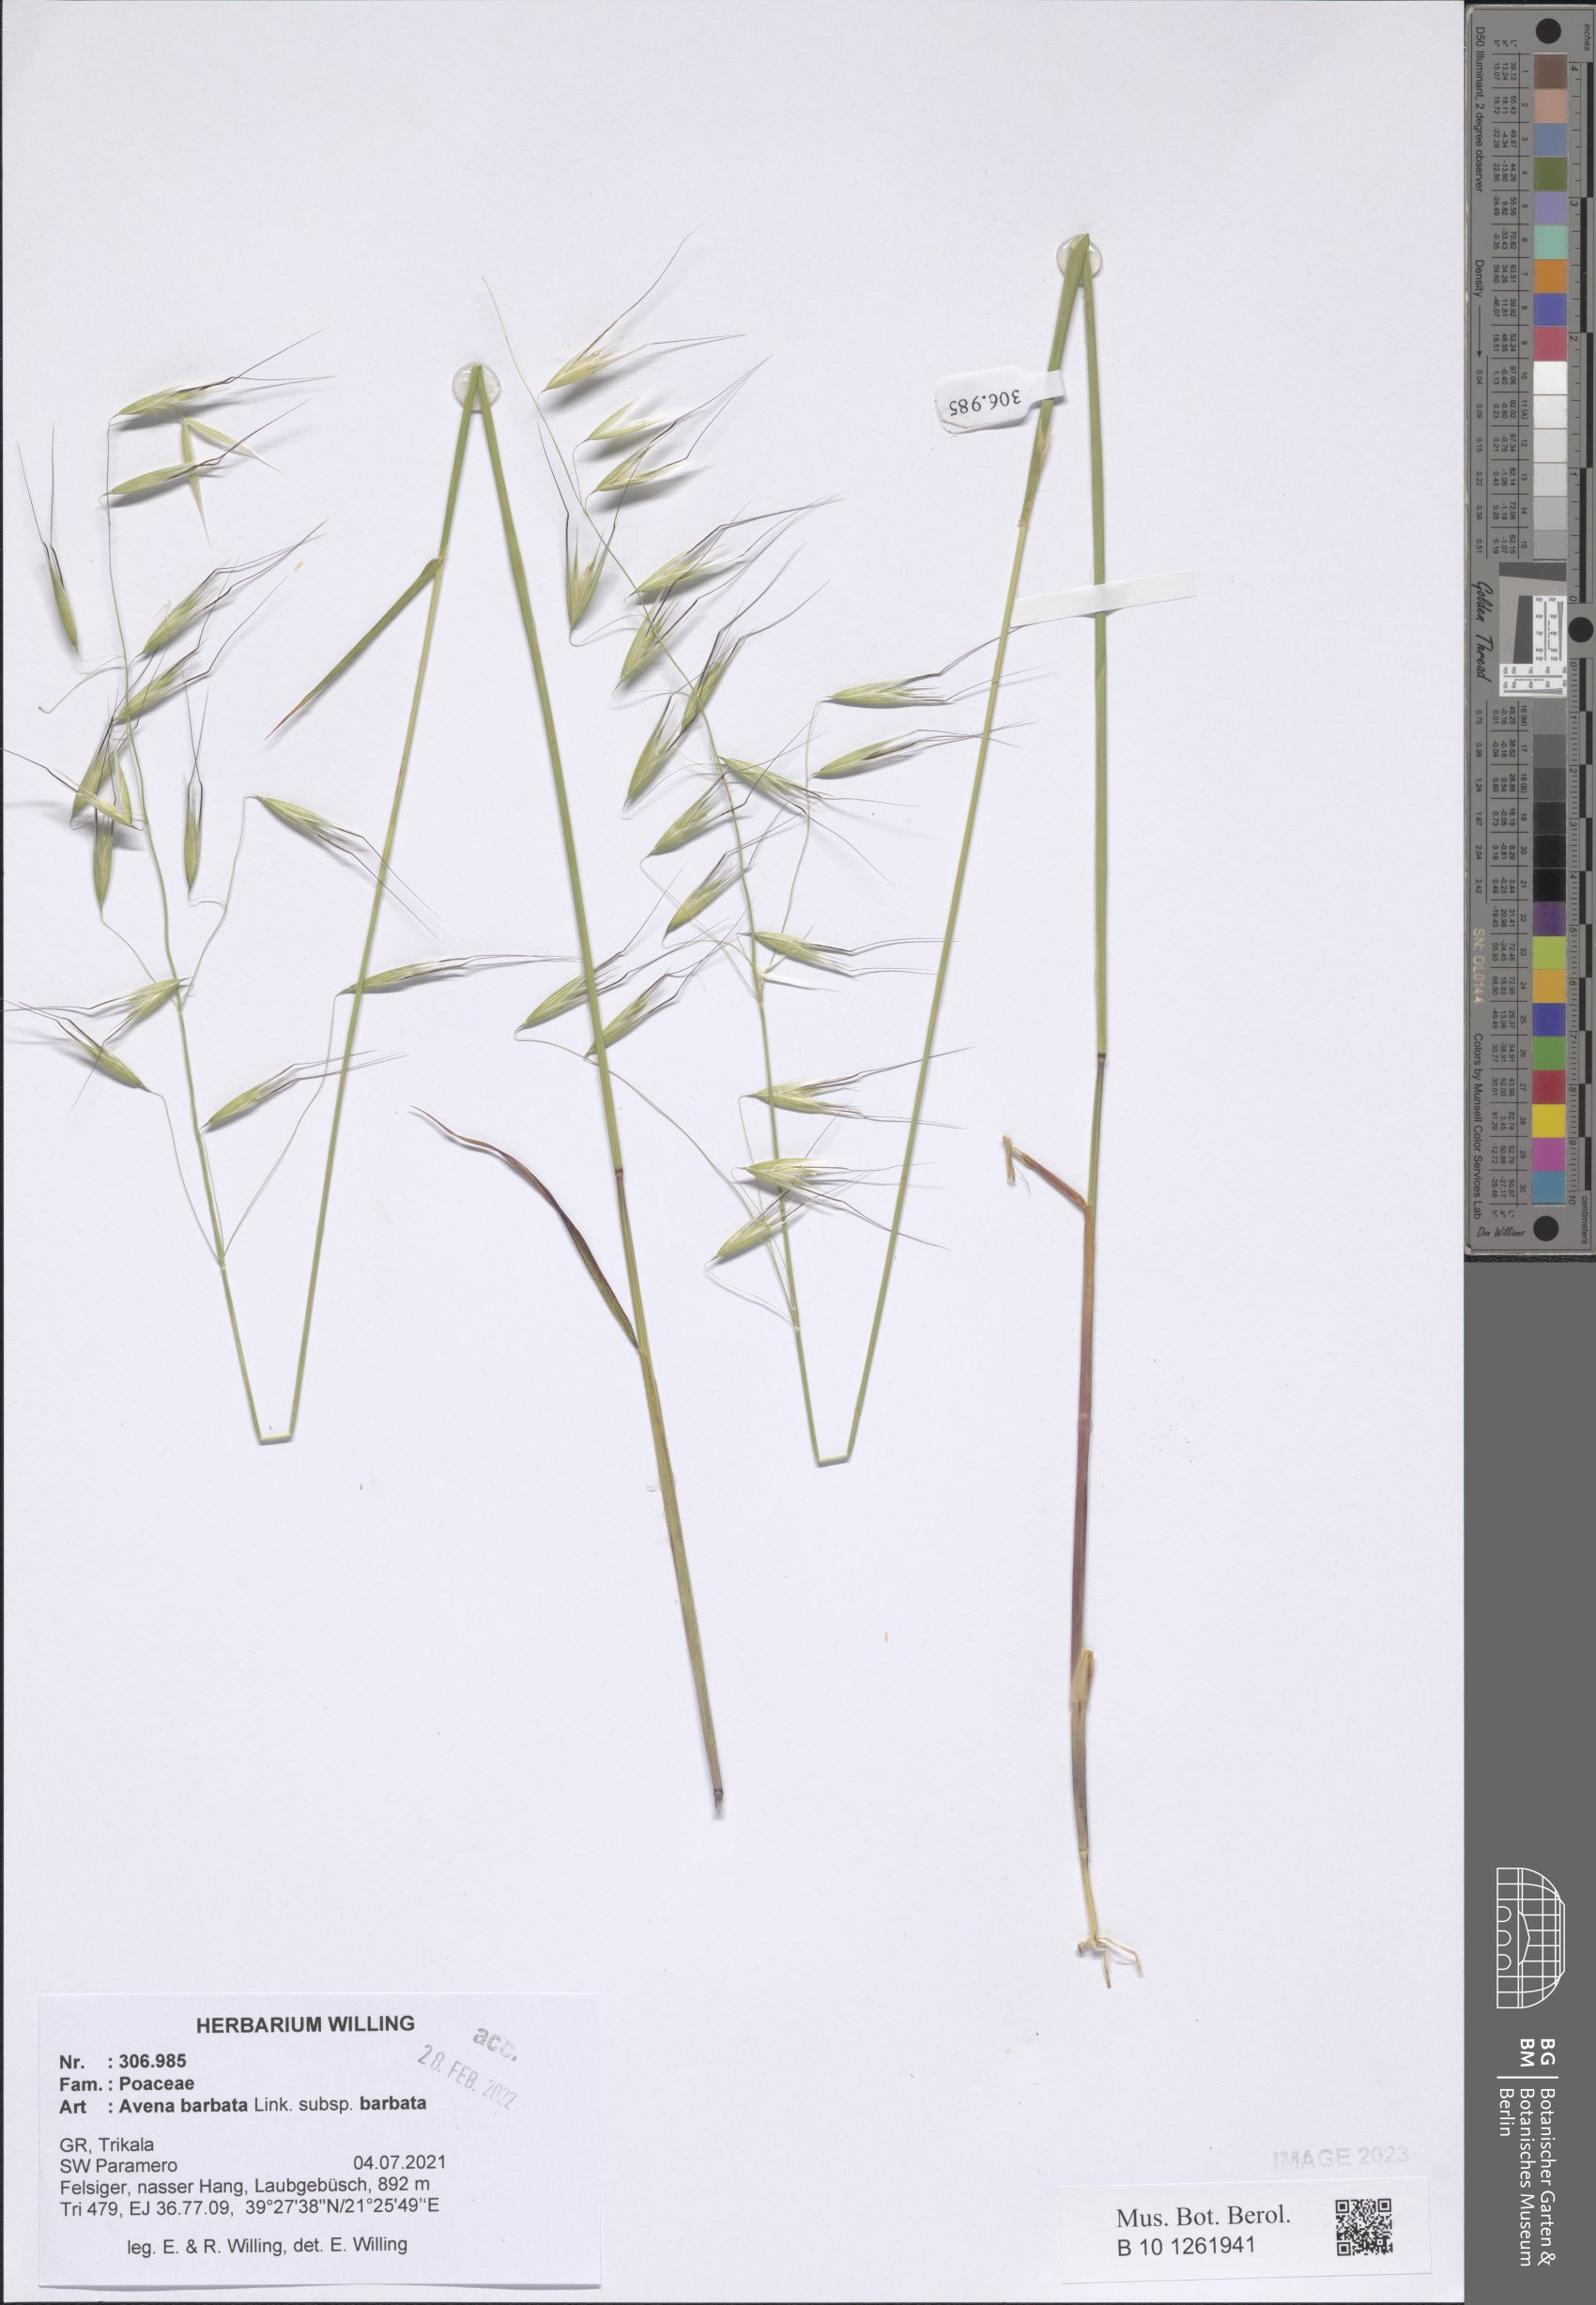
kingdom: Plantae
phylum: Tracheophyta
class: Liliopsida
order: Poales
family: Poaceae
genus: Avena
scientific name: Avena barbata
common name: Slender oat
